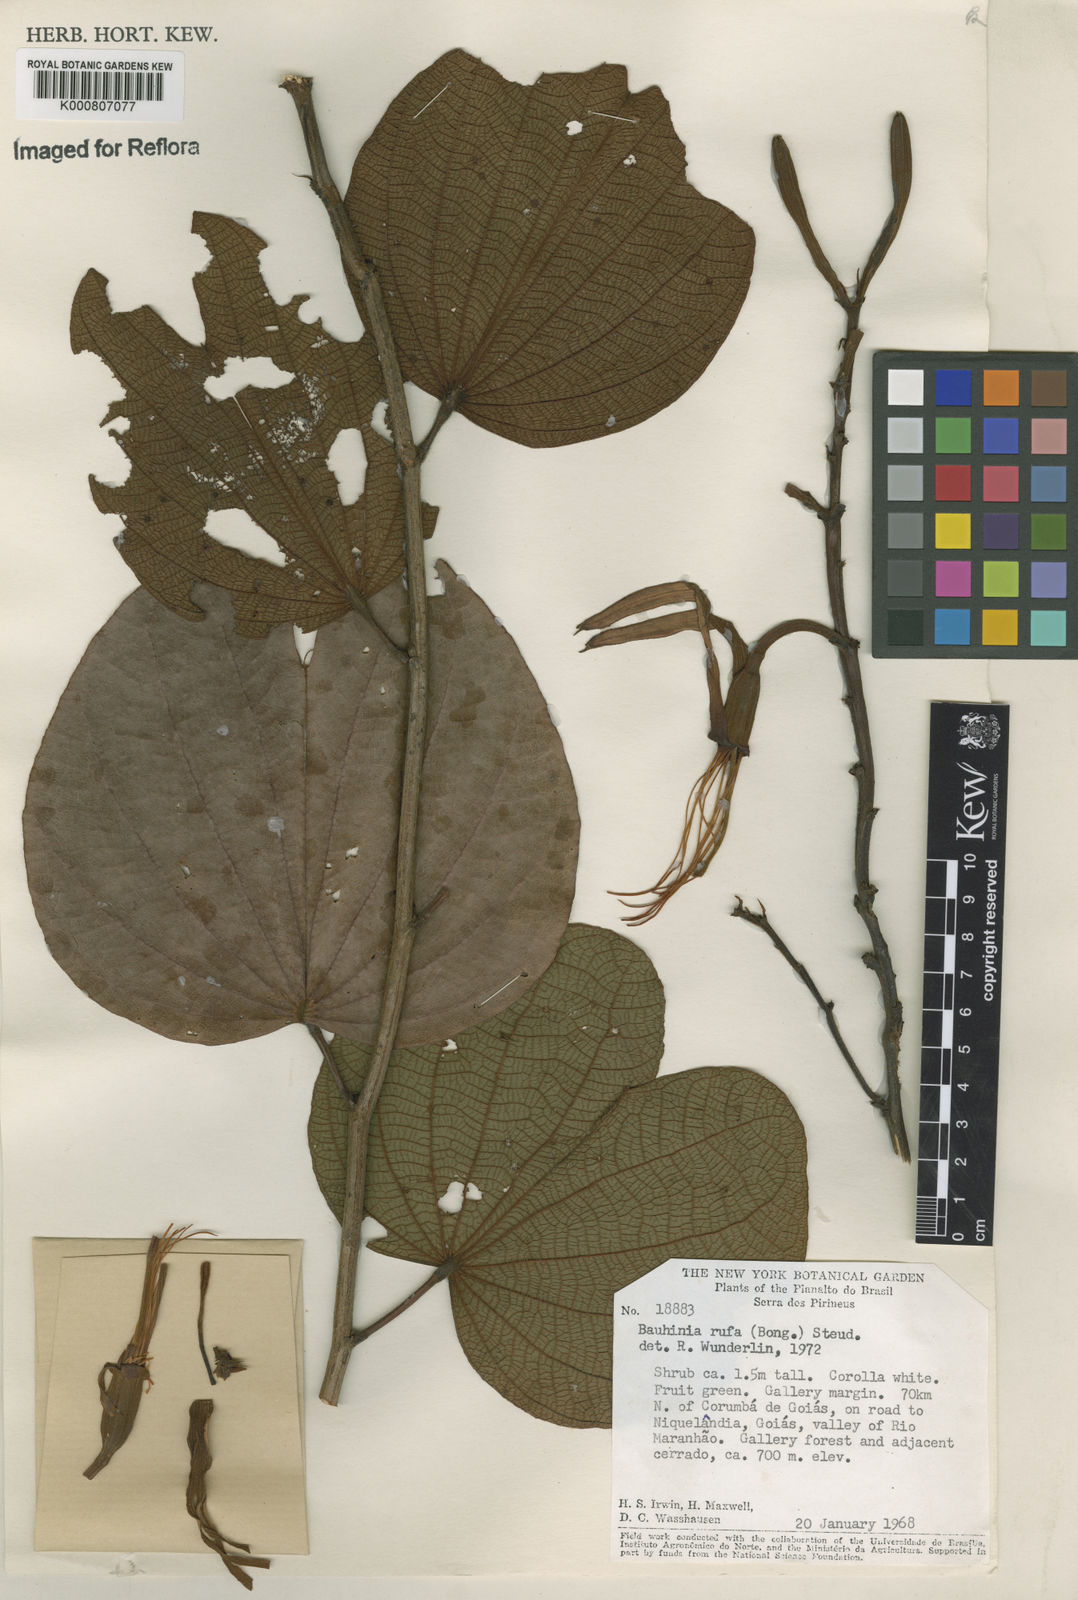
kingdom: Plantae
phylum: Tracheophyta
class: Magnoliopsida
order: Fabales
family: Fabaceae
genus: Bauhinia
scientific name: Bauhinia rufa
